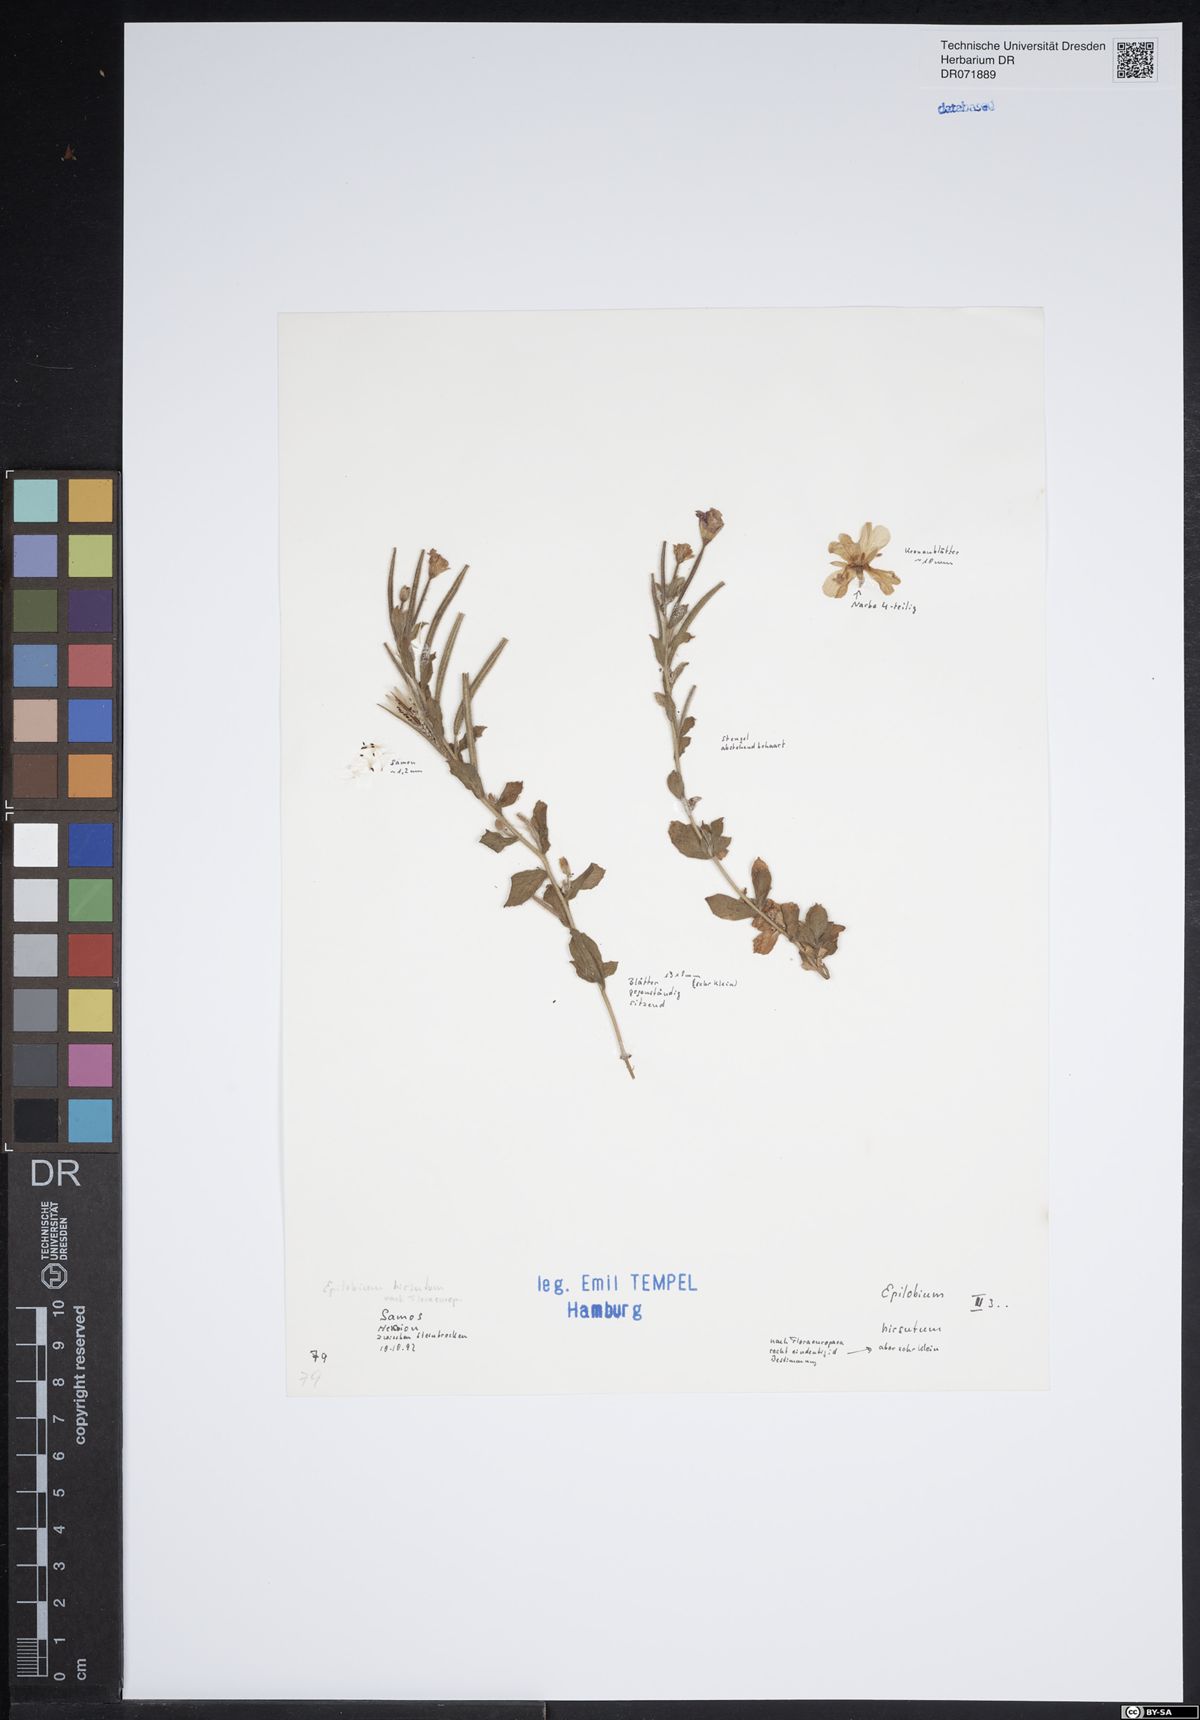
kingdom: Plantae
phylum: Tracheophyta
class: Magnoliopsida
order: Myrtales
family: Onagraceae
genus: Epilobium
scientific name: Epilobium hirsutum
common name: Great willowherb
